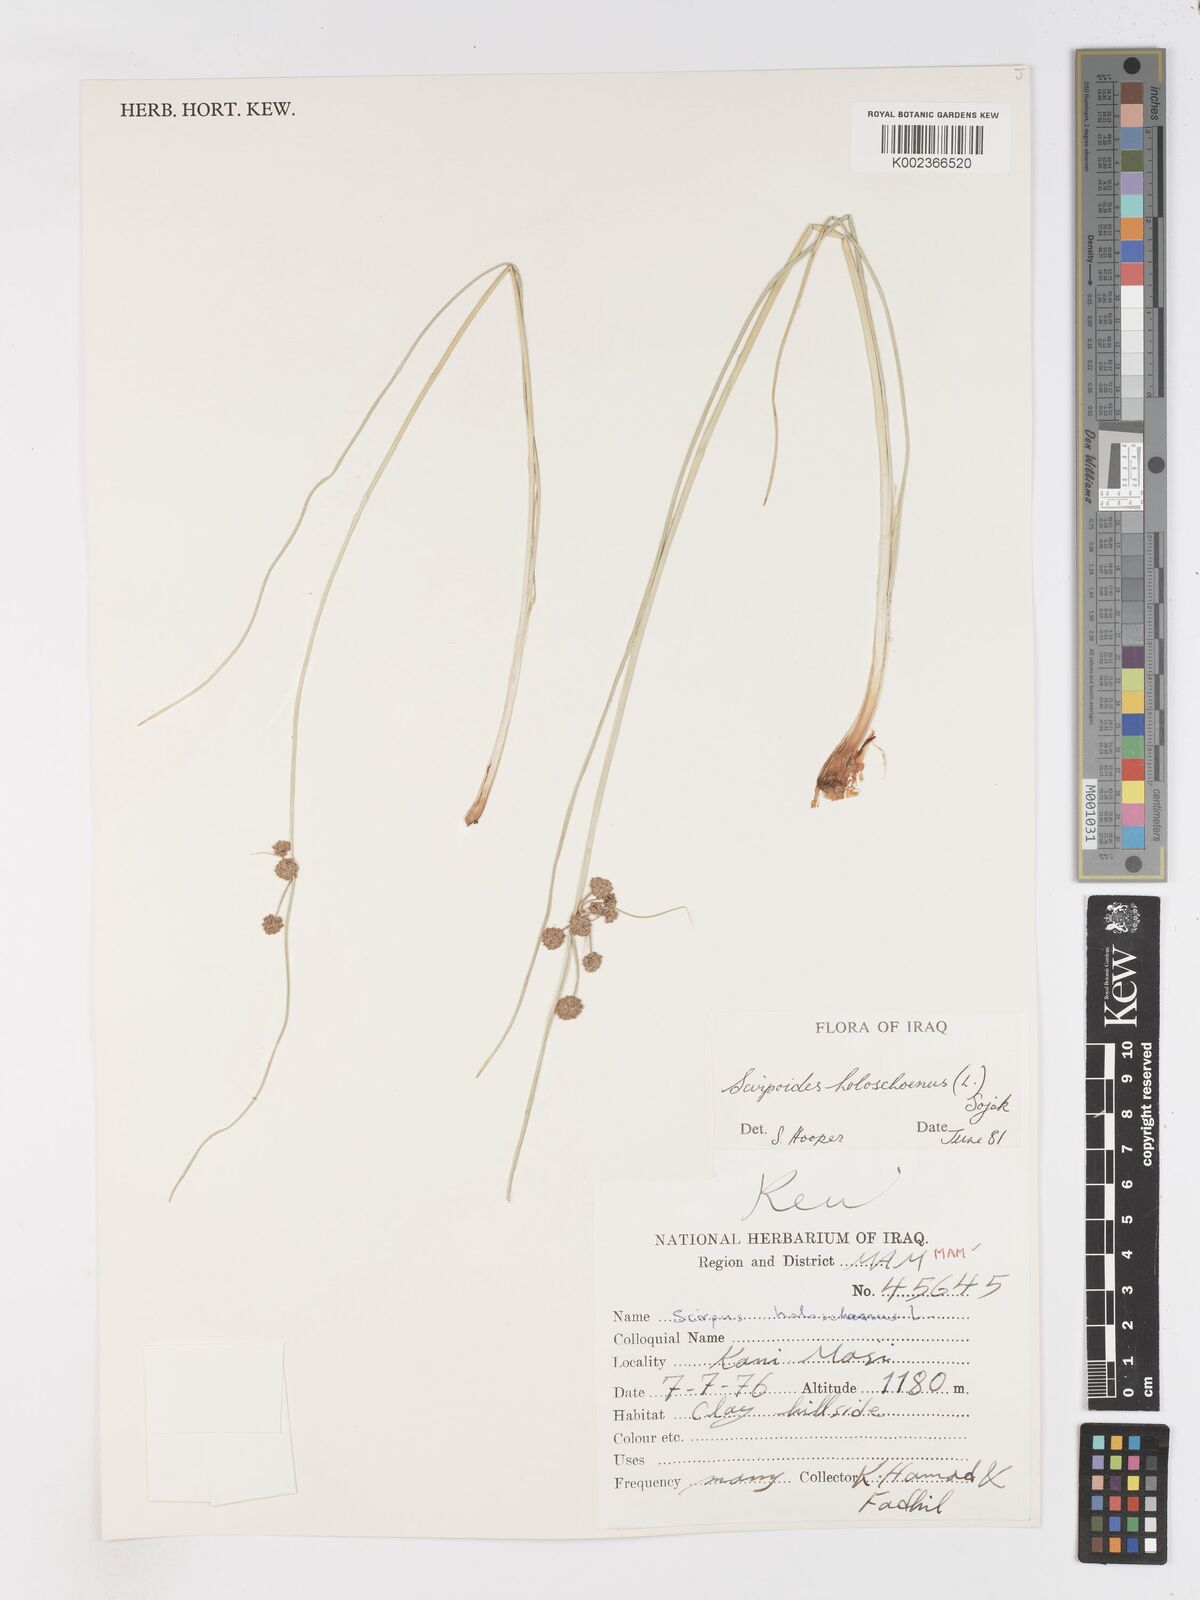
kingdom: Plantae
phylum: Tracheophyta
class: Liliopsida
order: Poales
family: Cyperaceae
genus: Scirpoides
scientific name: Scirpoides holoschoenus
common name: Round-headed club-rush
